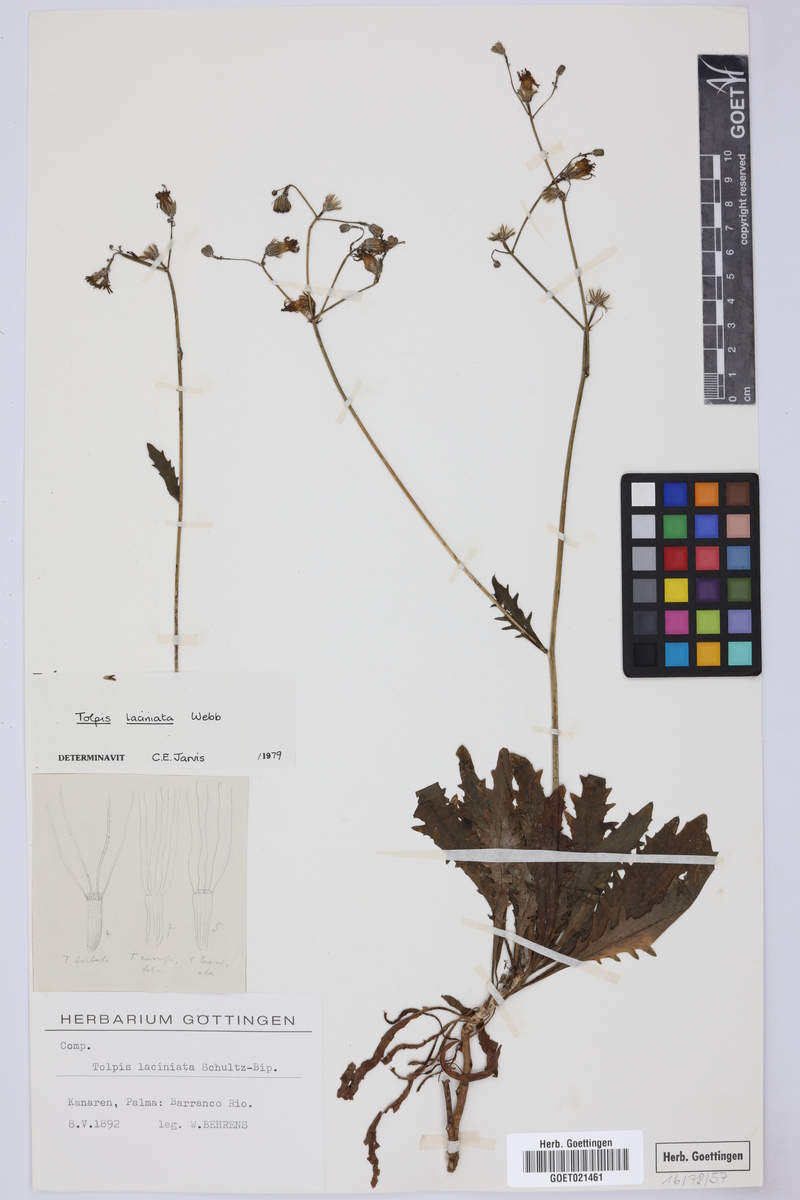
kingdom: Plantae
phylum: Tracheophyta
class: Magnoliopsida
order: Asterales
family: Asteraceae
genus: Tolpis
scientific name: Tolpis laciniata
